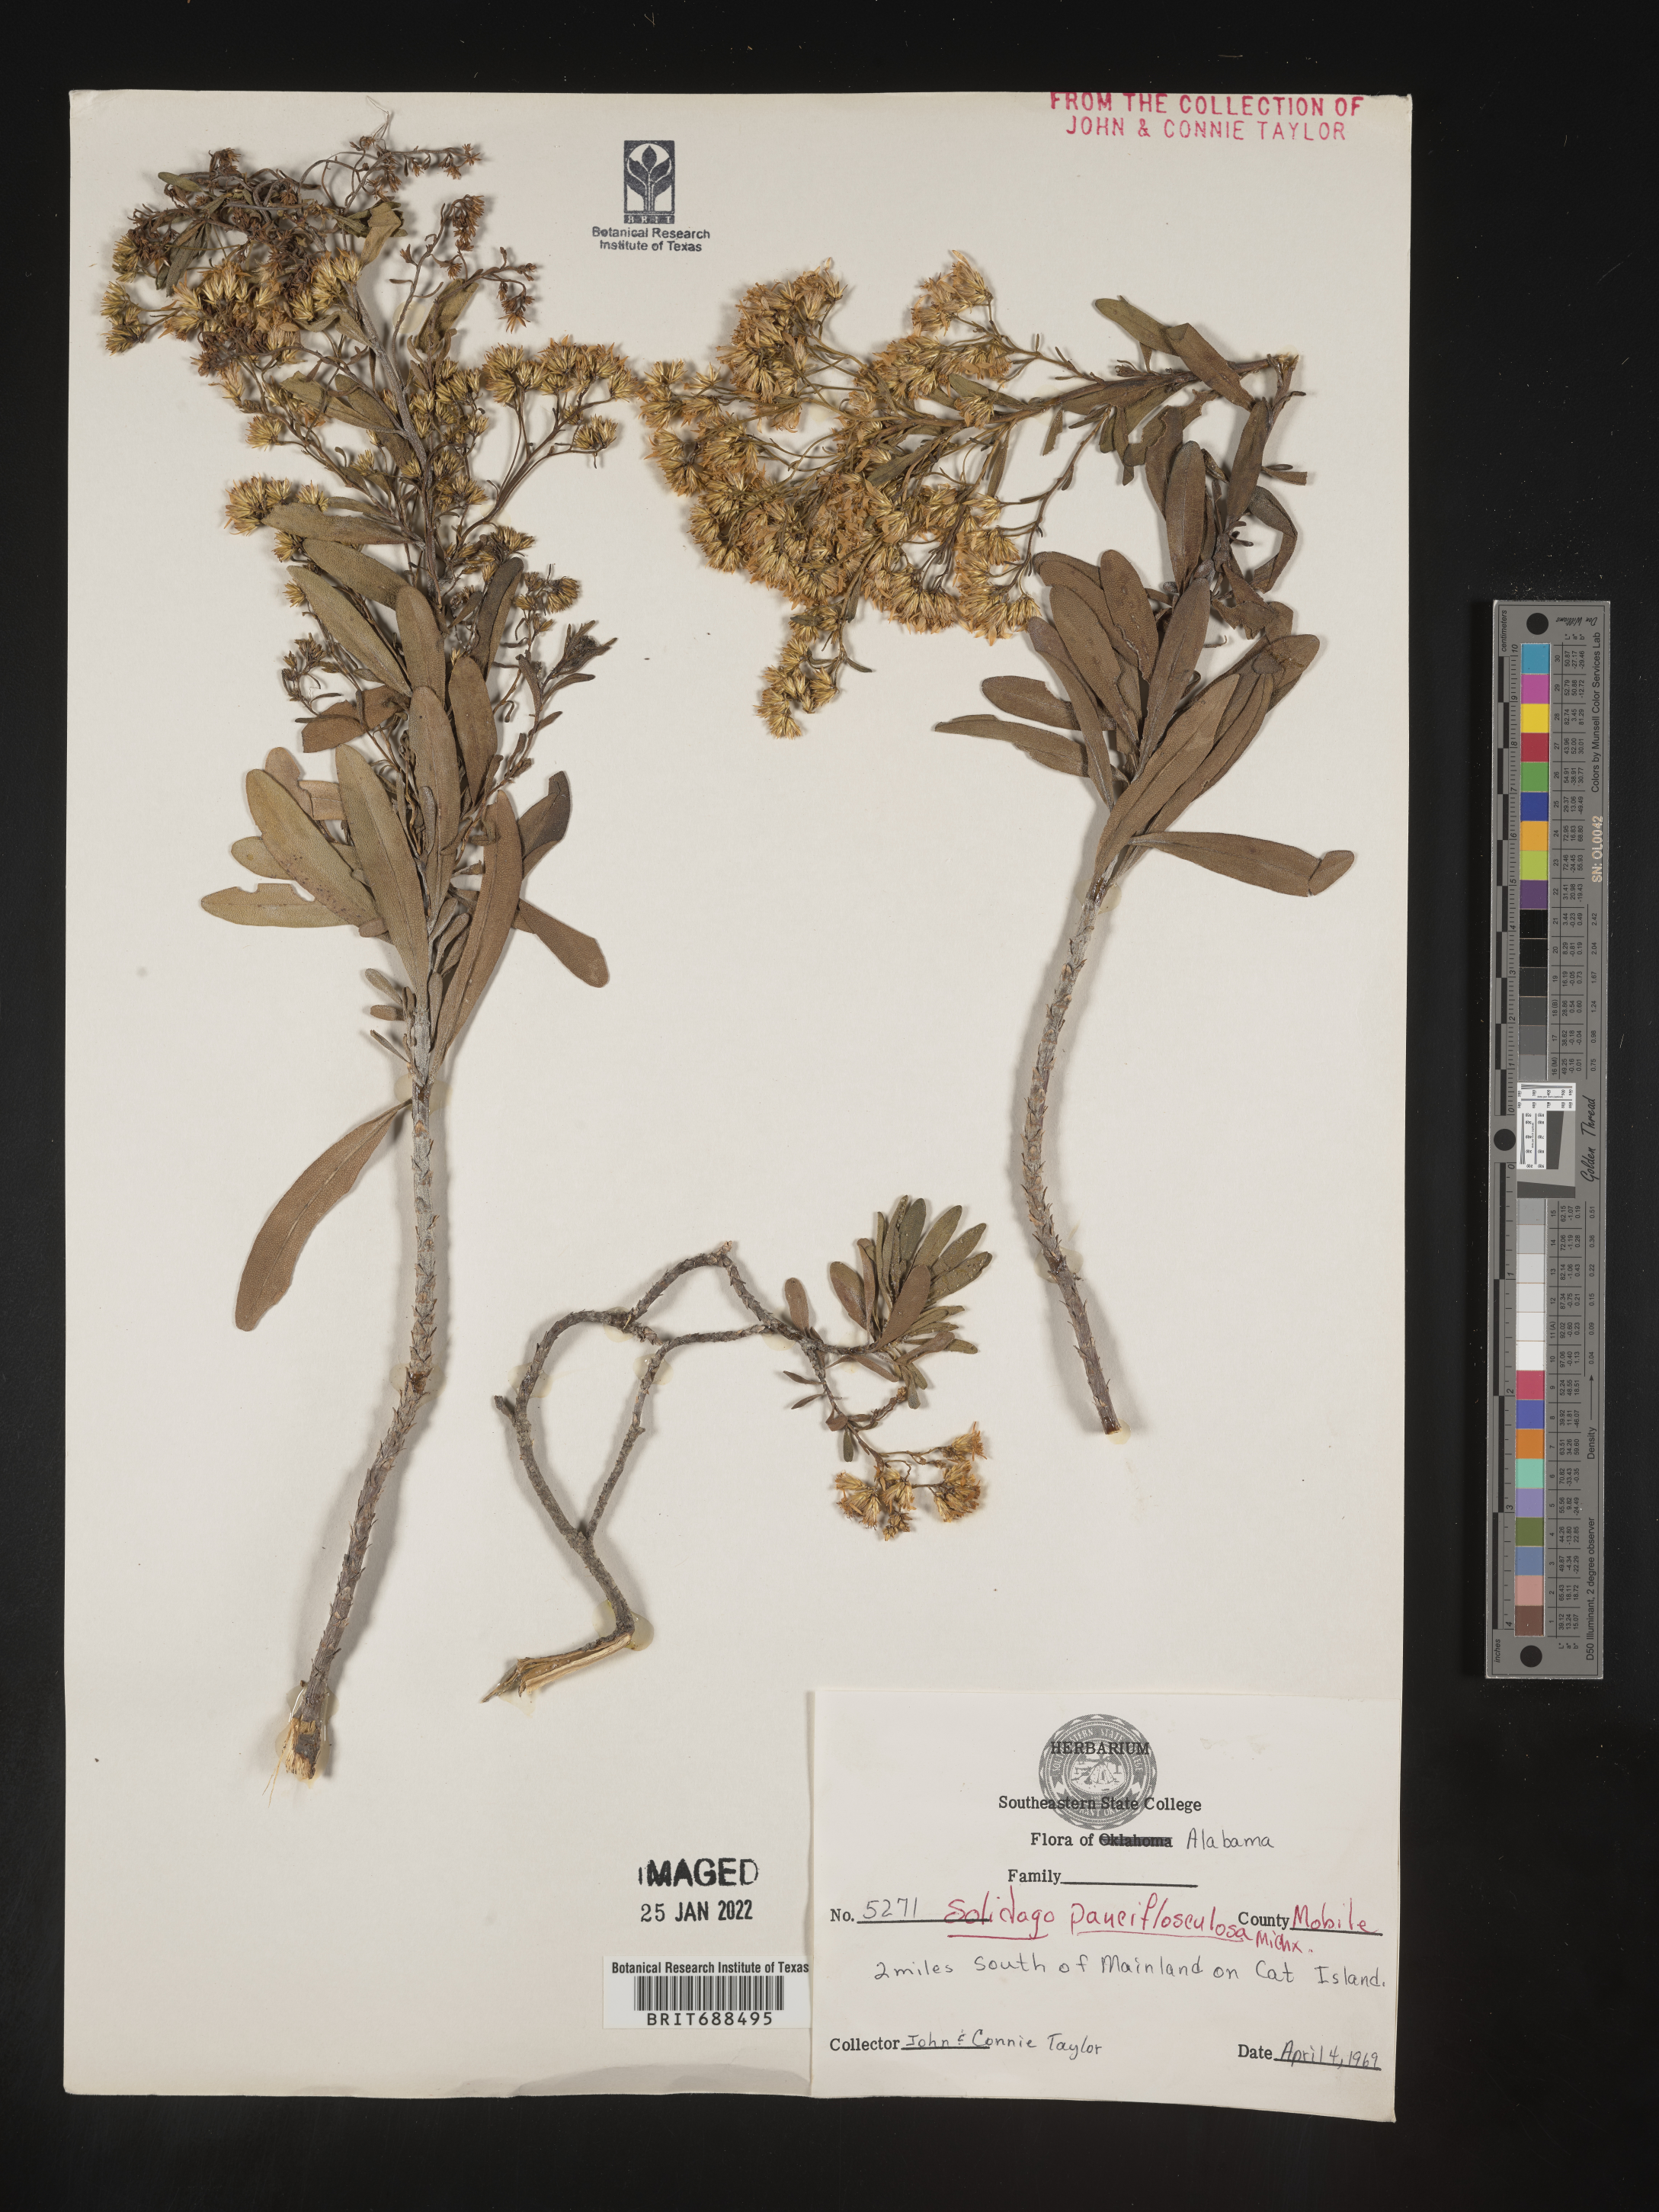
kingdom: Plantae
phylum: Tracheophyta
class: Magnoliopsida
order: Asterales
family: Asteraceae
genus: Chrysoma
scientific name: Chrysoma pauciflosculosa
